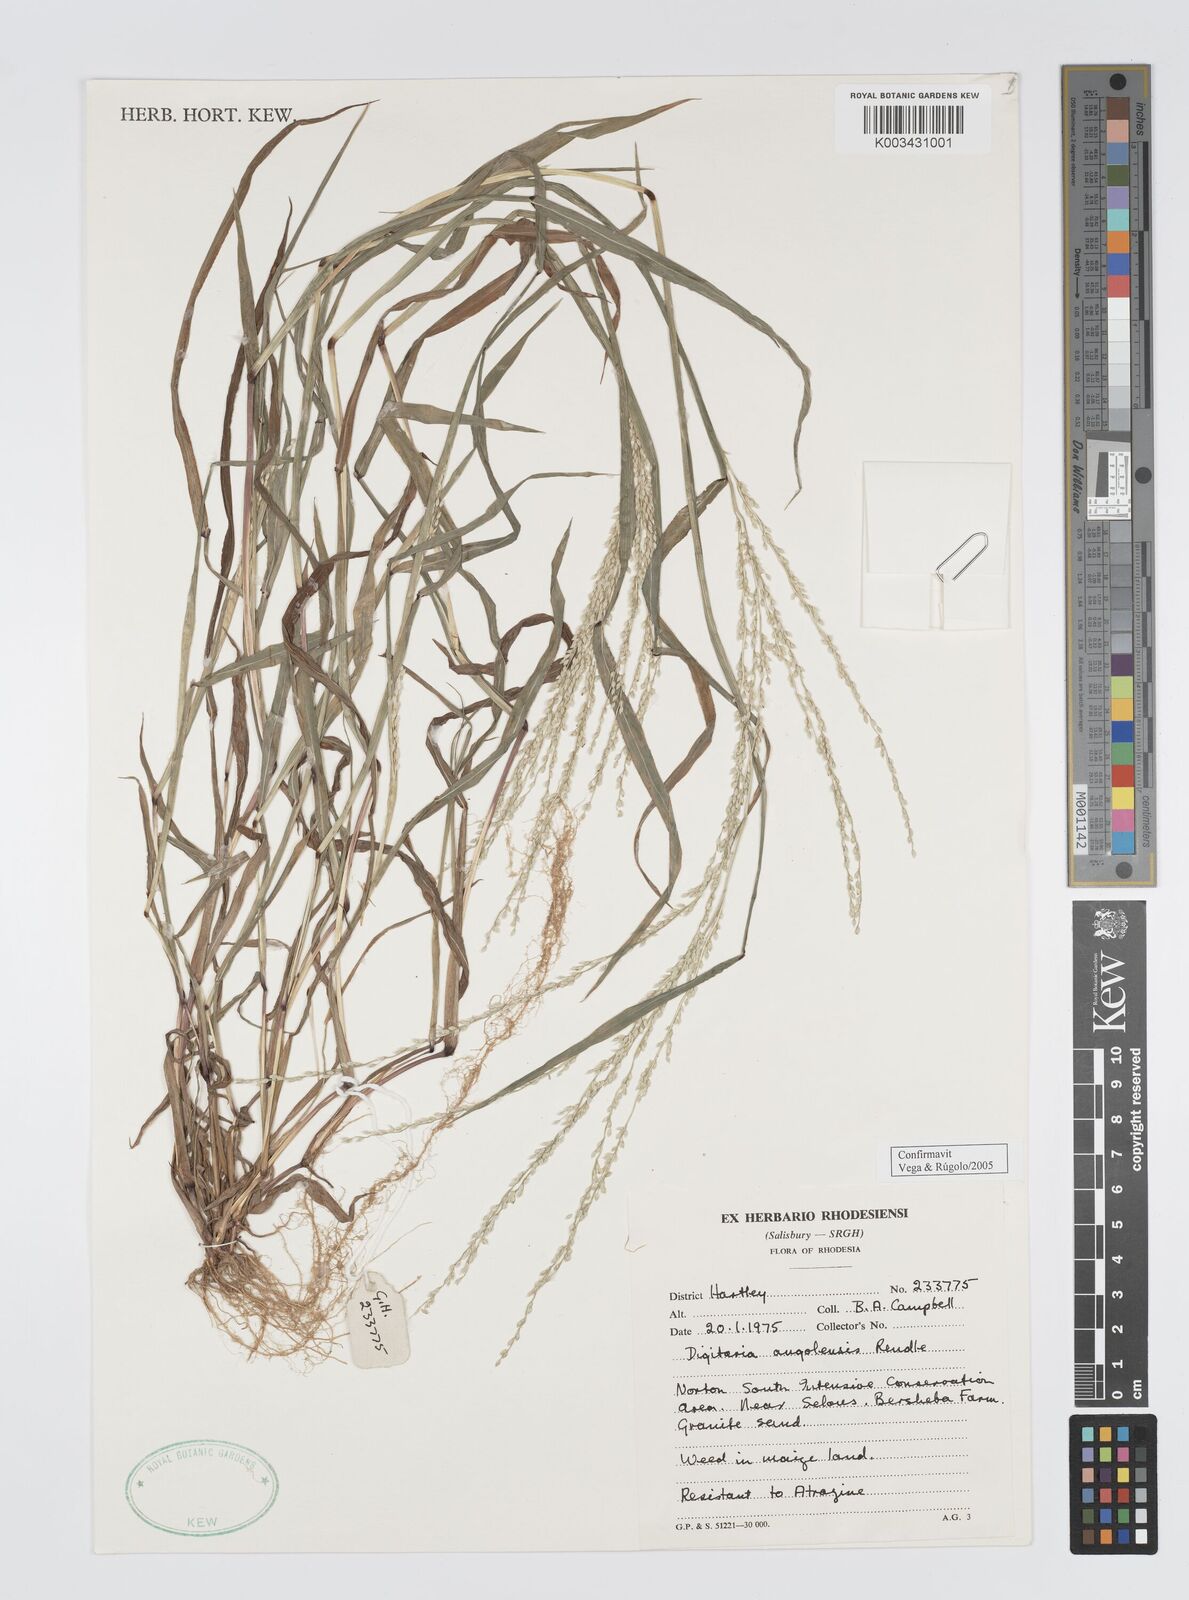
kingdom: Plantae
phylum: Tracheophyta
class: Liliopsida
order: Poales
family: Poaceae
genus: Digitaria
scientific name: Digitaria angolensis
